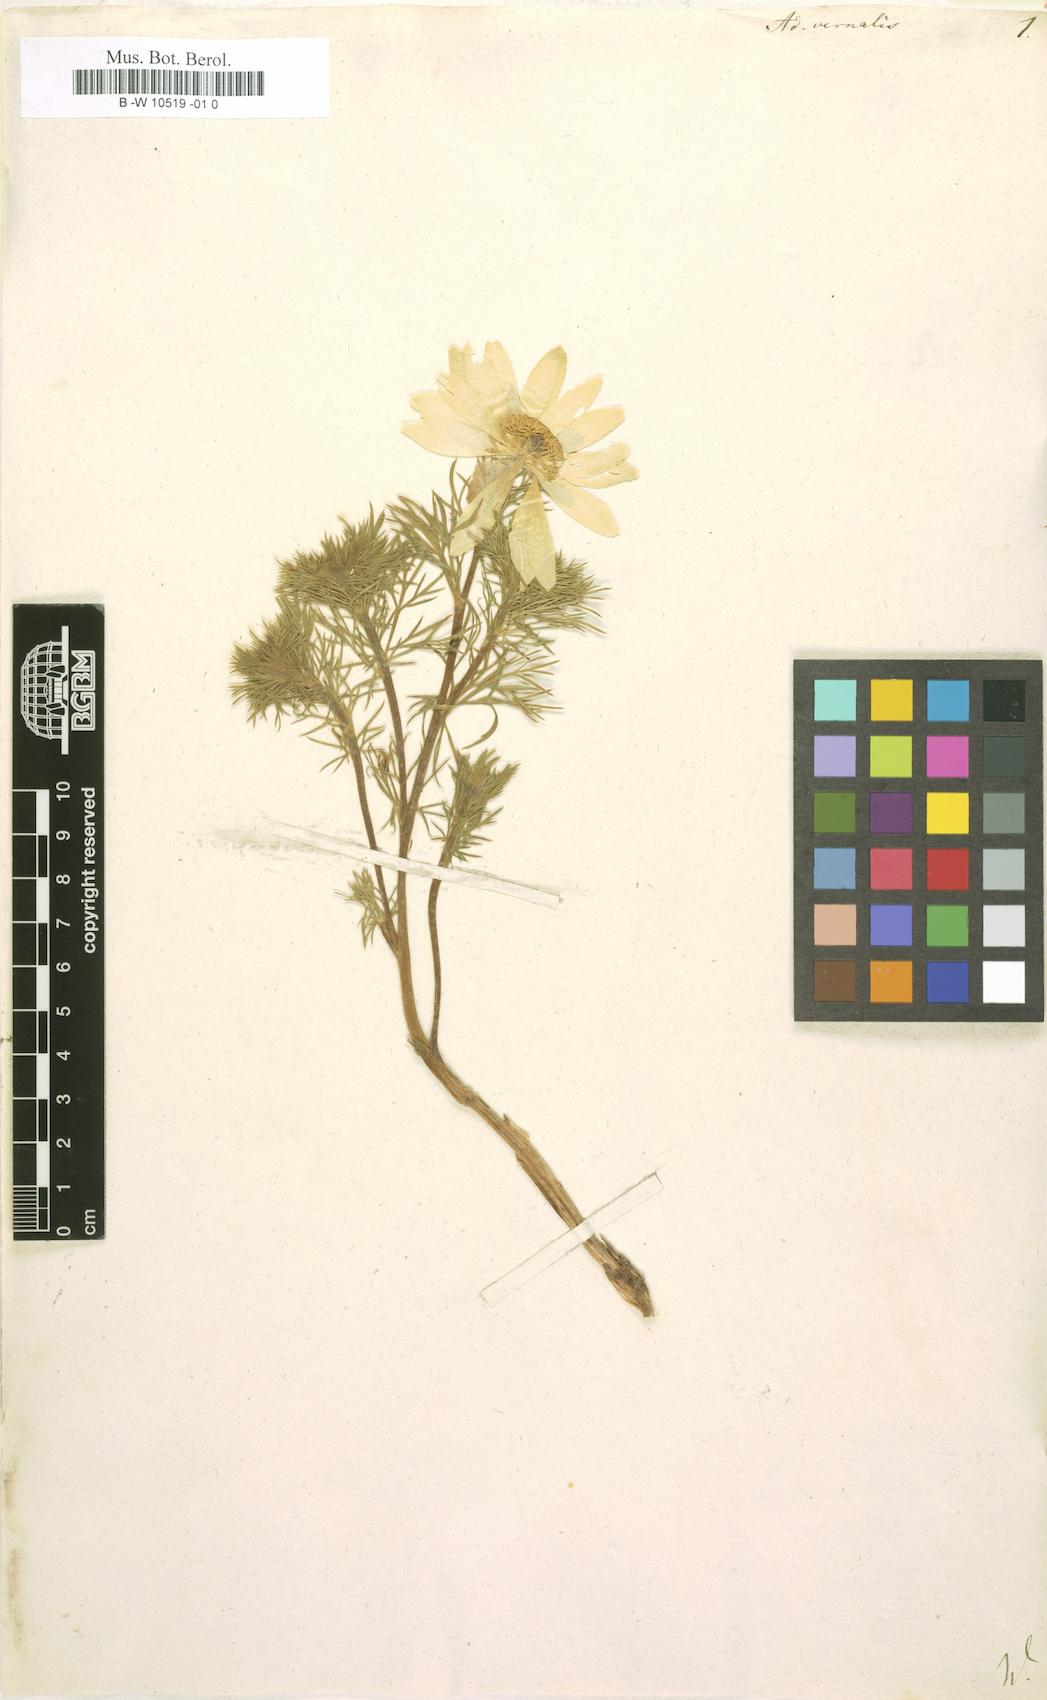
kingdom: Plantae
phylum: Tracheophyta
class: Magnoliopsida
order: Ranunculales
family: Ranunculaceae
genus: Adonis
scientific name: Adonis vernalis
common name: Yellow pheasants-eye
